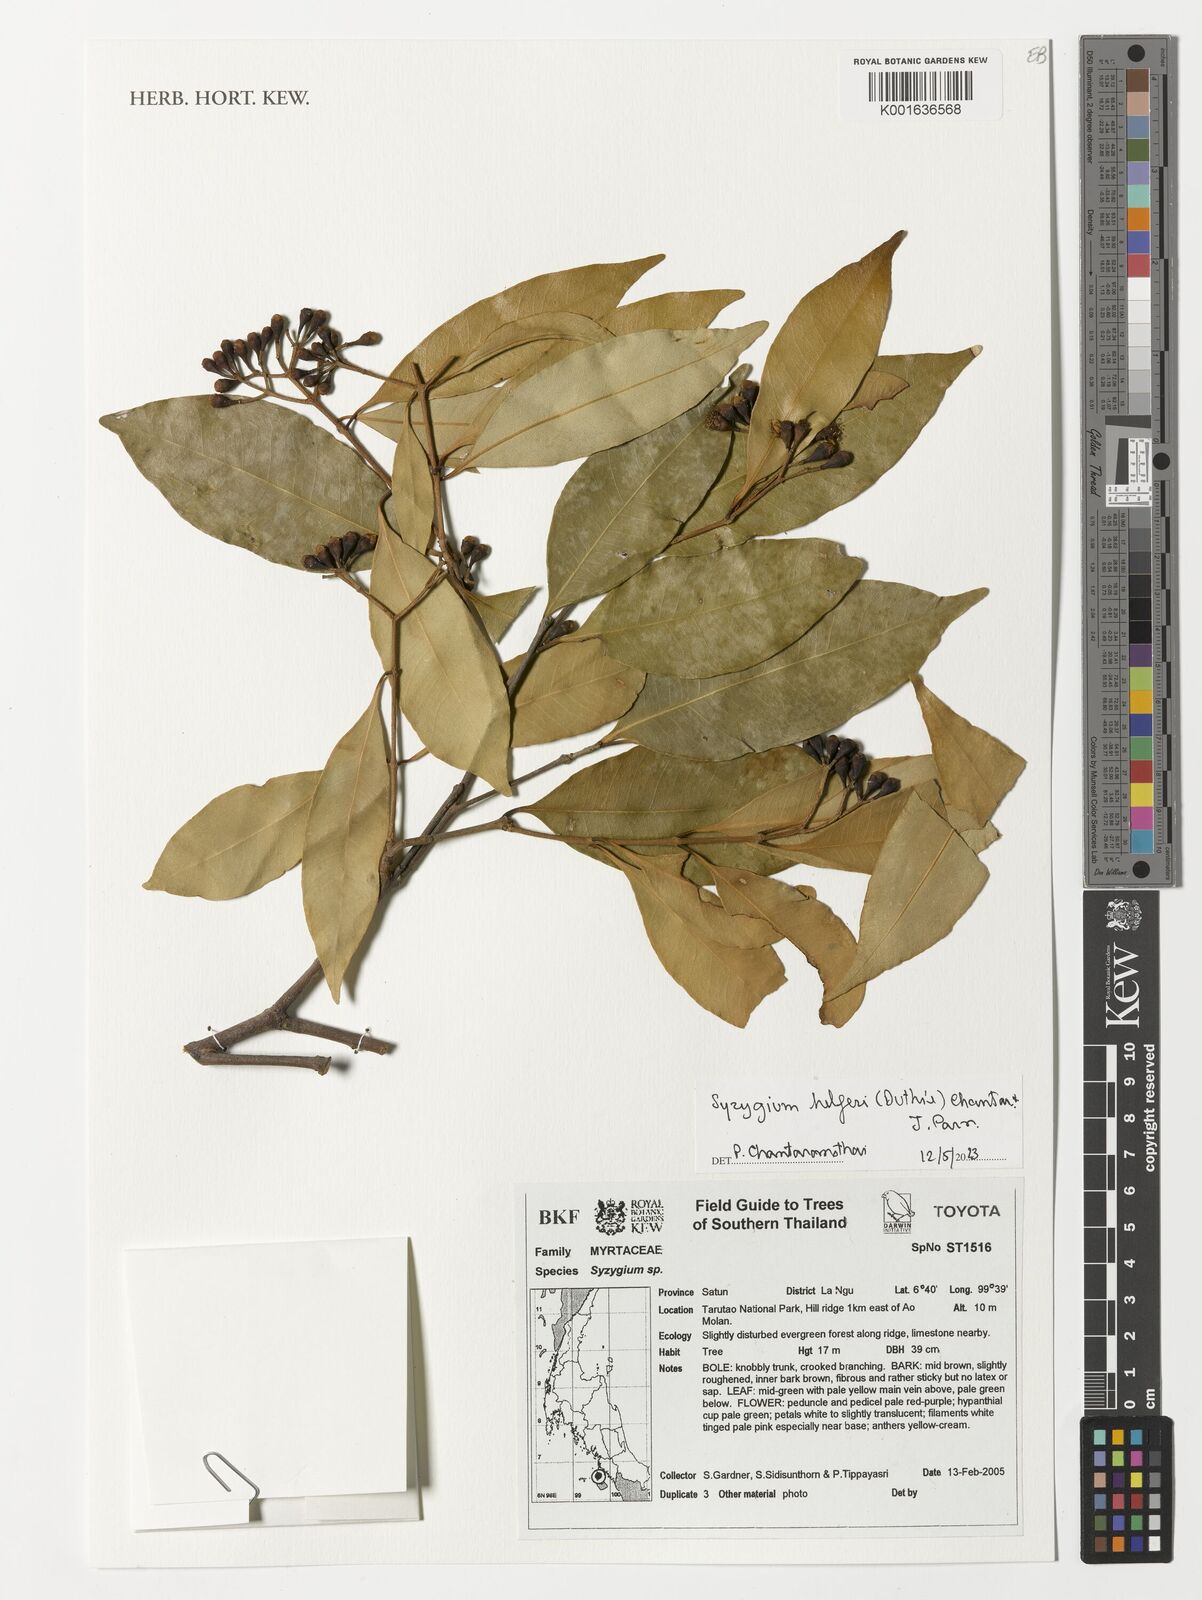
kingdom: Plantae
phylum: Tracheophyta
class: Magnoliopsida
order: Myrtales
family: Myrtaceae
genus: Syzygium
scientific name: Syzygium helferi
